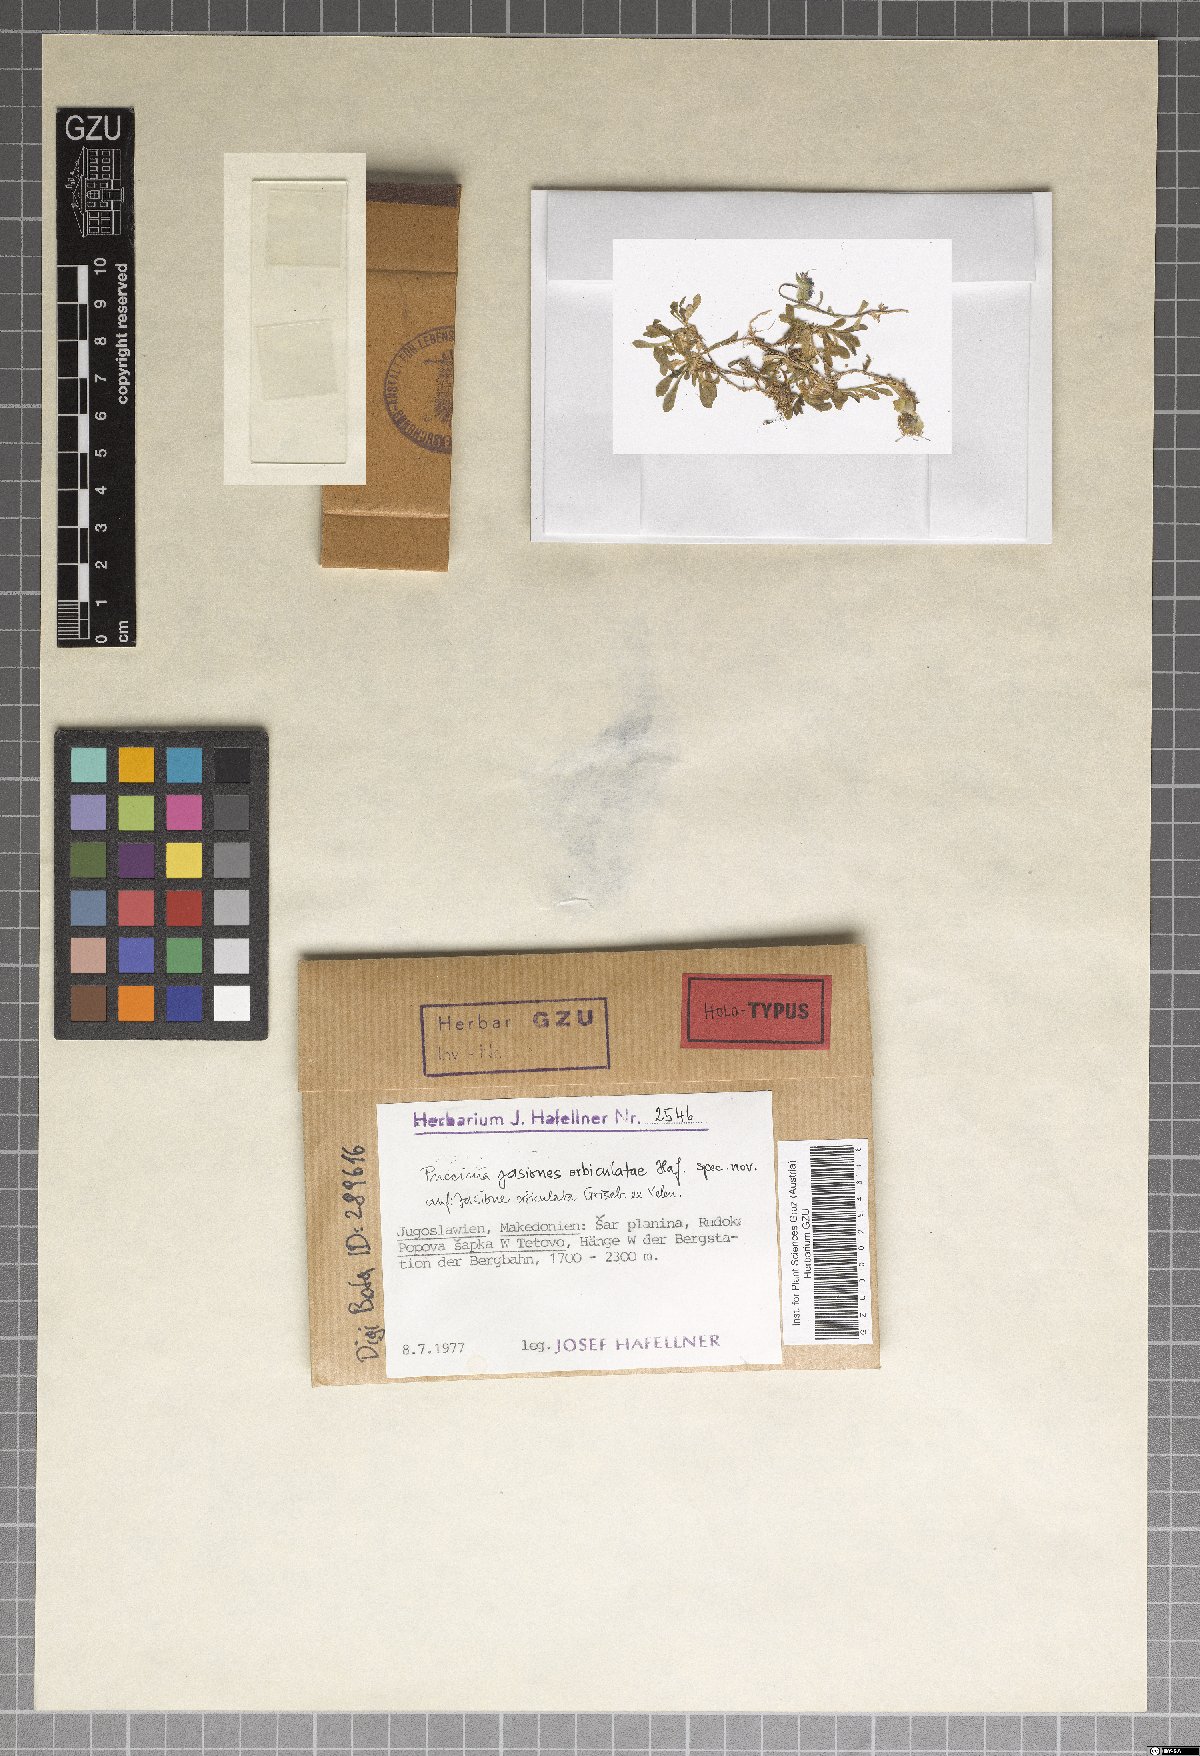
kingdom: Fungi
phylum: Basidiomycota
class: Pucciniomycetes
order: Pucciniales
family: Pucciniaceae
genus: Puccinia
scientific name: Puccinia jasiones-orbiculatae
